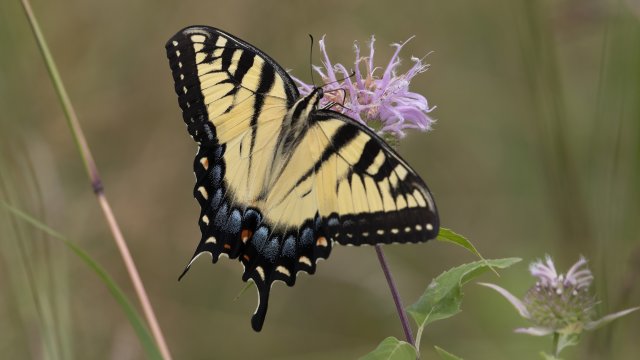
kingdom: Animalia
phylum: Arthropoda
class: Insecta
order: Lepidoptera
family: Papilionidae
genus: Pterourus
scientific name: Pterourus glaucus
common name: Eastern Tiger Swallowtail
